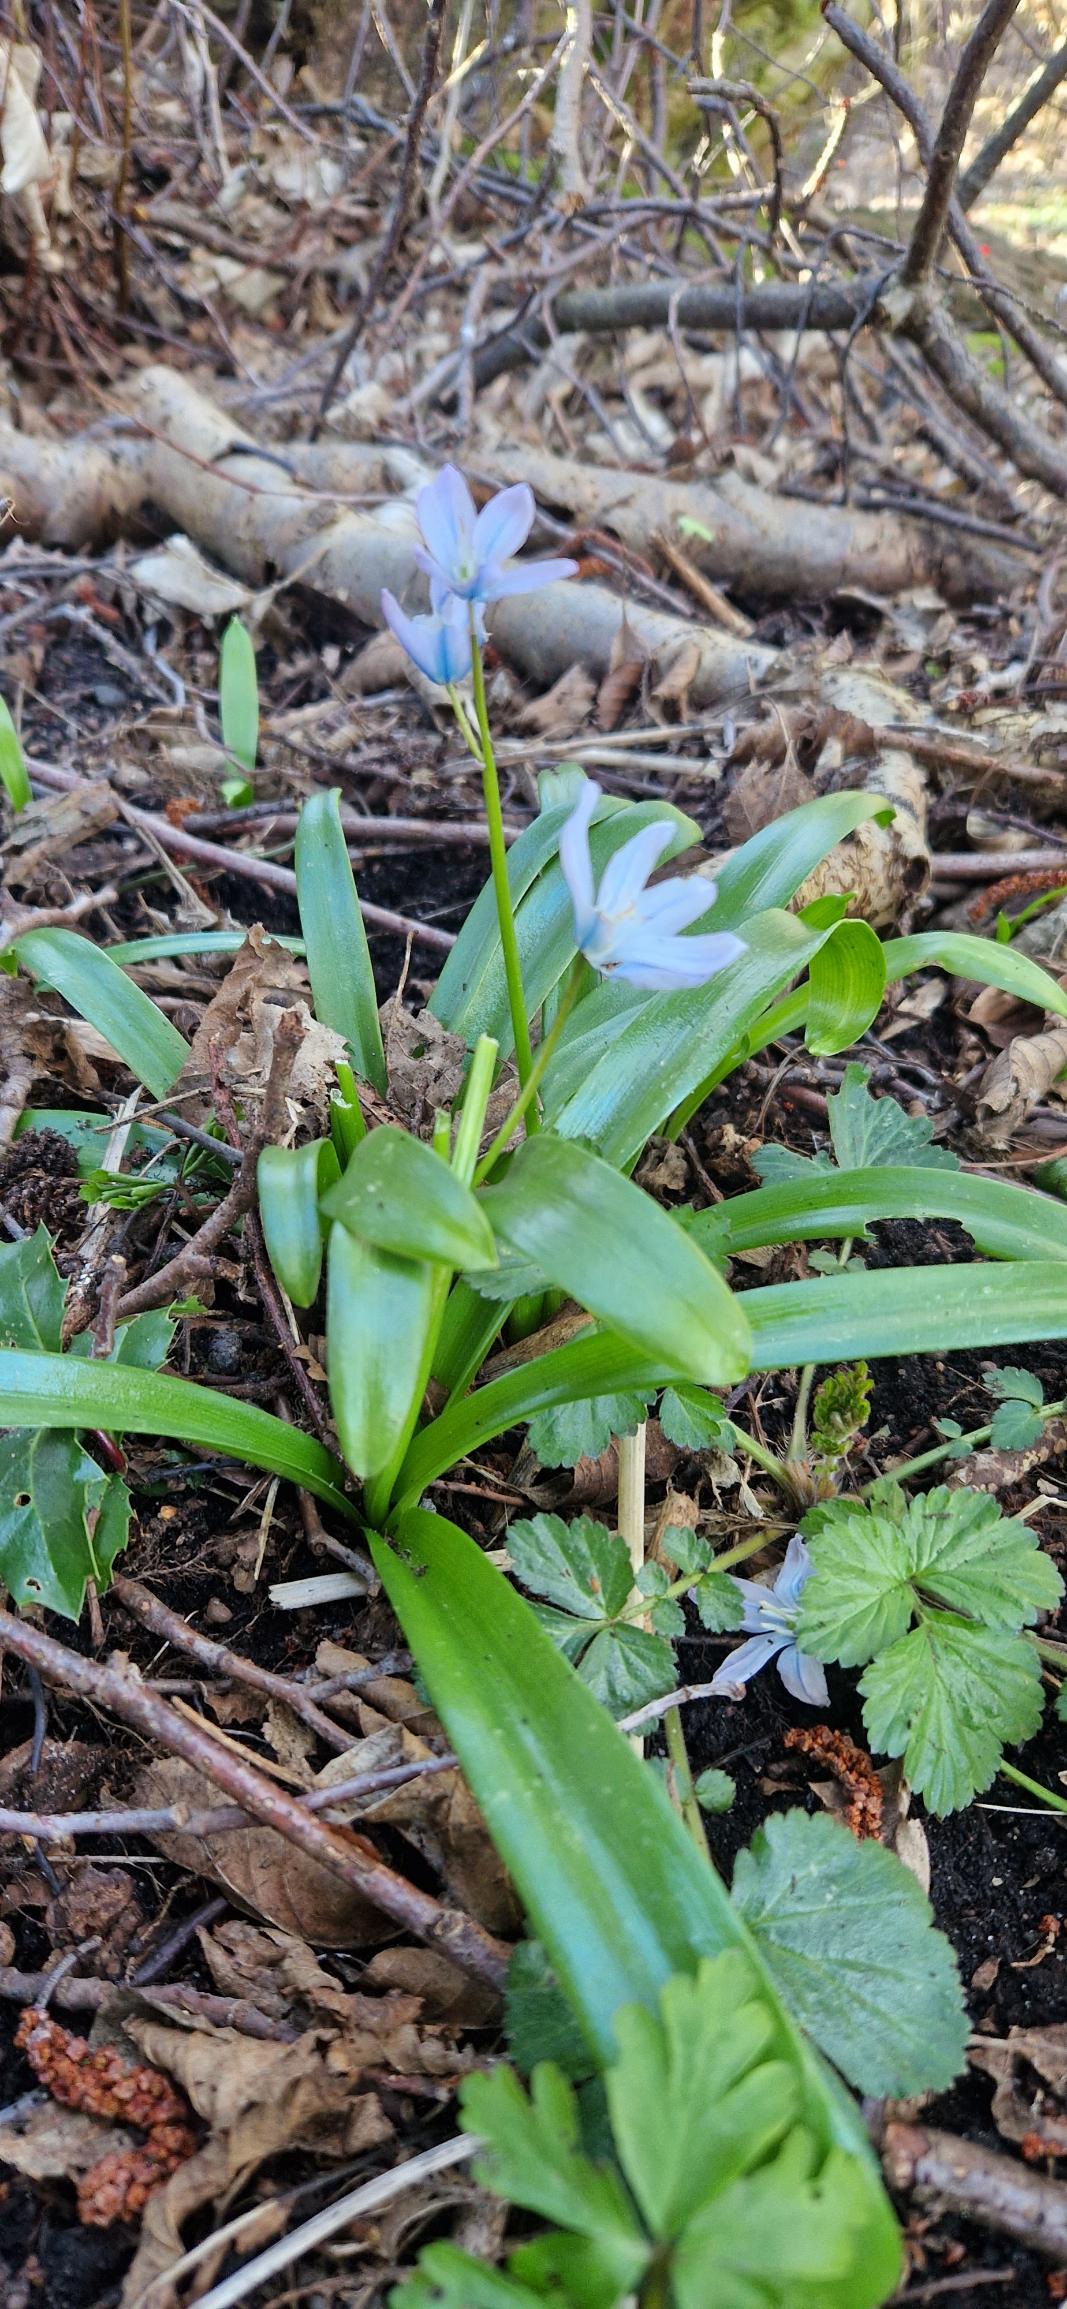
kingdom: Plantae
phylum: Tracheophyta
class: Liliopsida
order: Asparagales
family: Asparagaceae
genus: Scilla
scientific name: Scilla mischtschenkoana
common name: Persisk skilla
